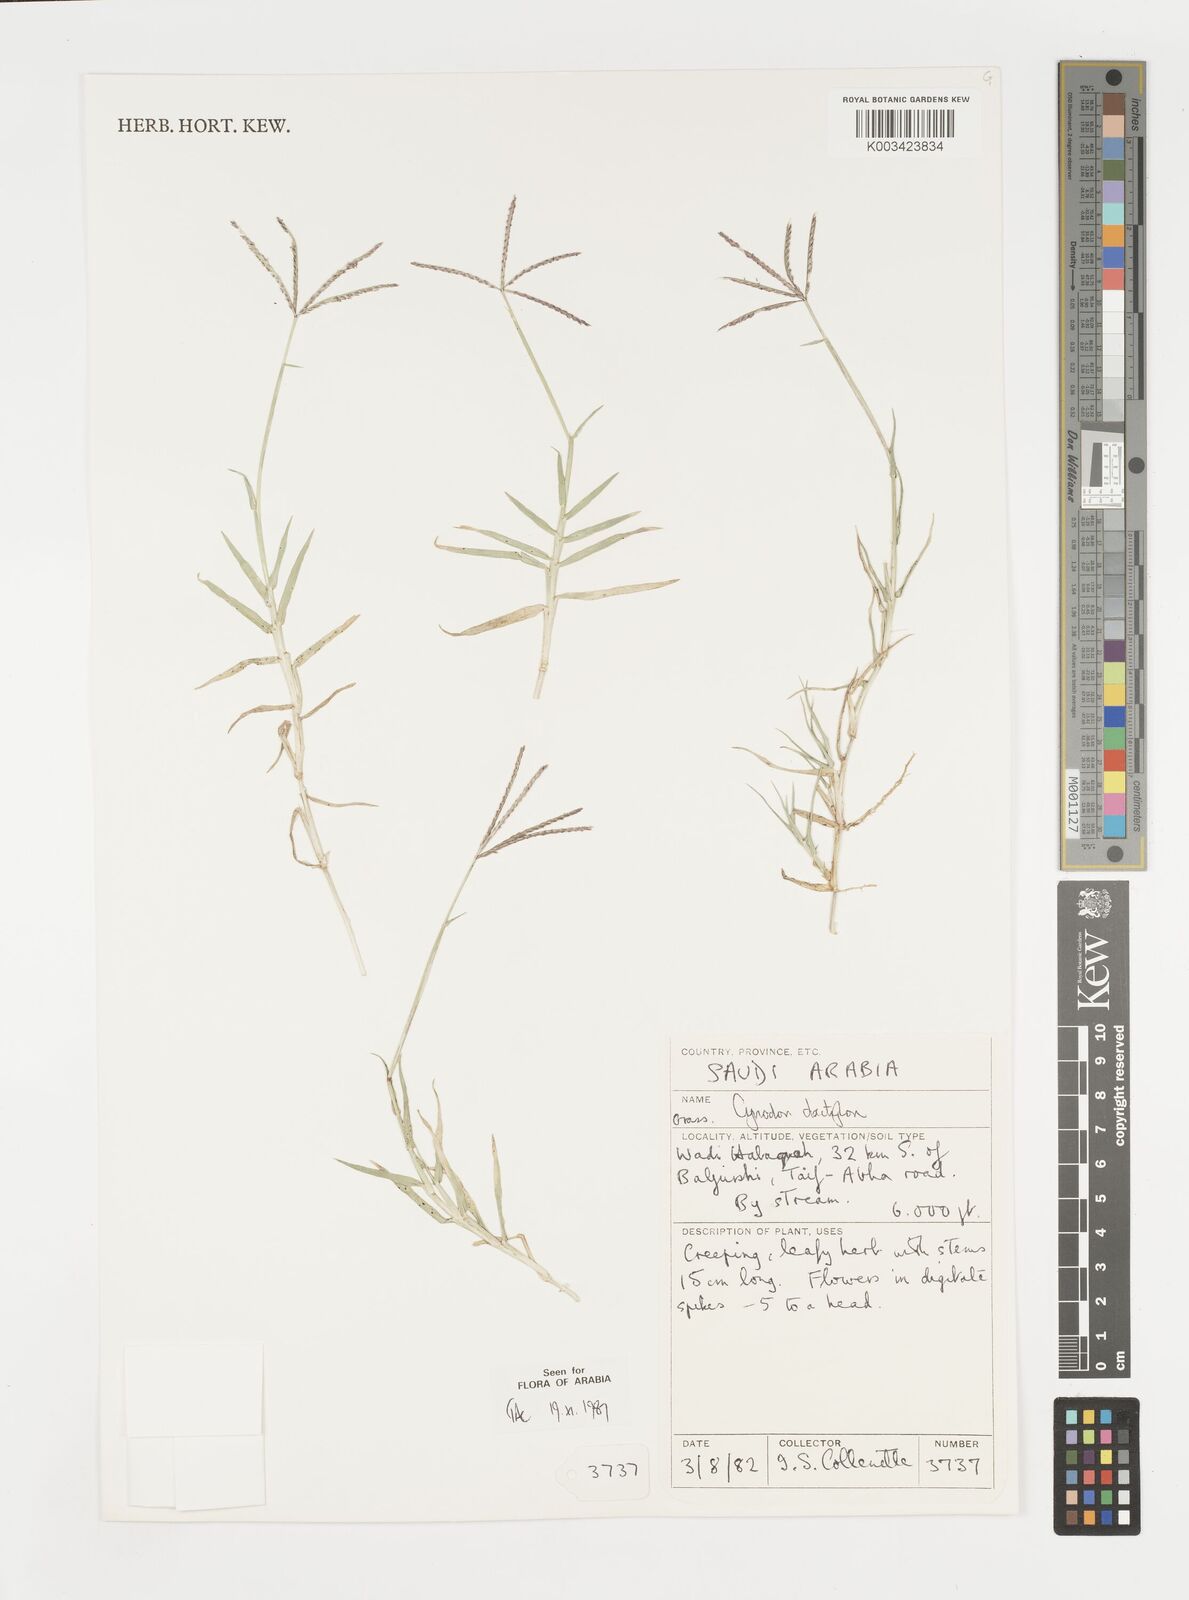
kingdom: Plantae
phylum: Tracheophyta
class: Liliopsida
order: Poales
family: Poaceae
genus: Cynodon
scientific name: Cynodon dactylon
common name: Bermuda grass
